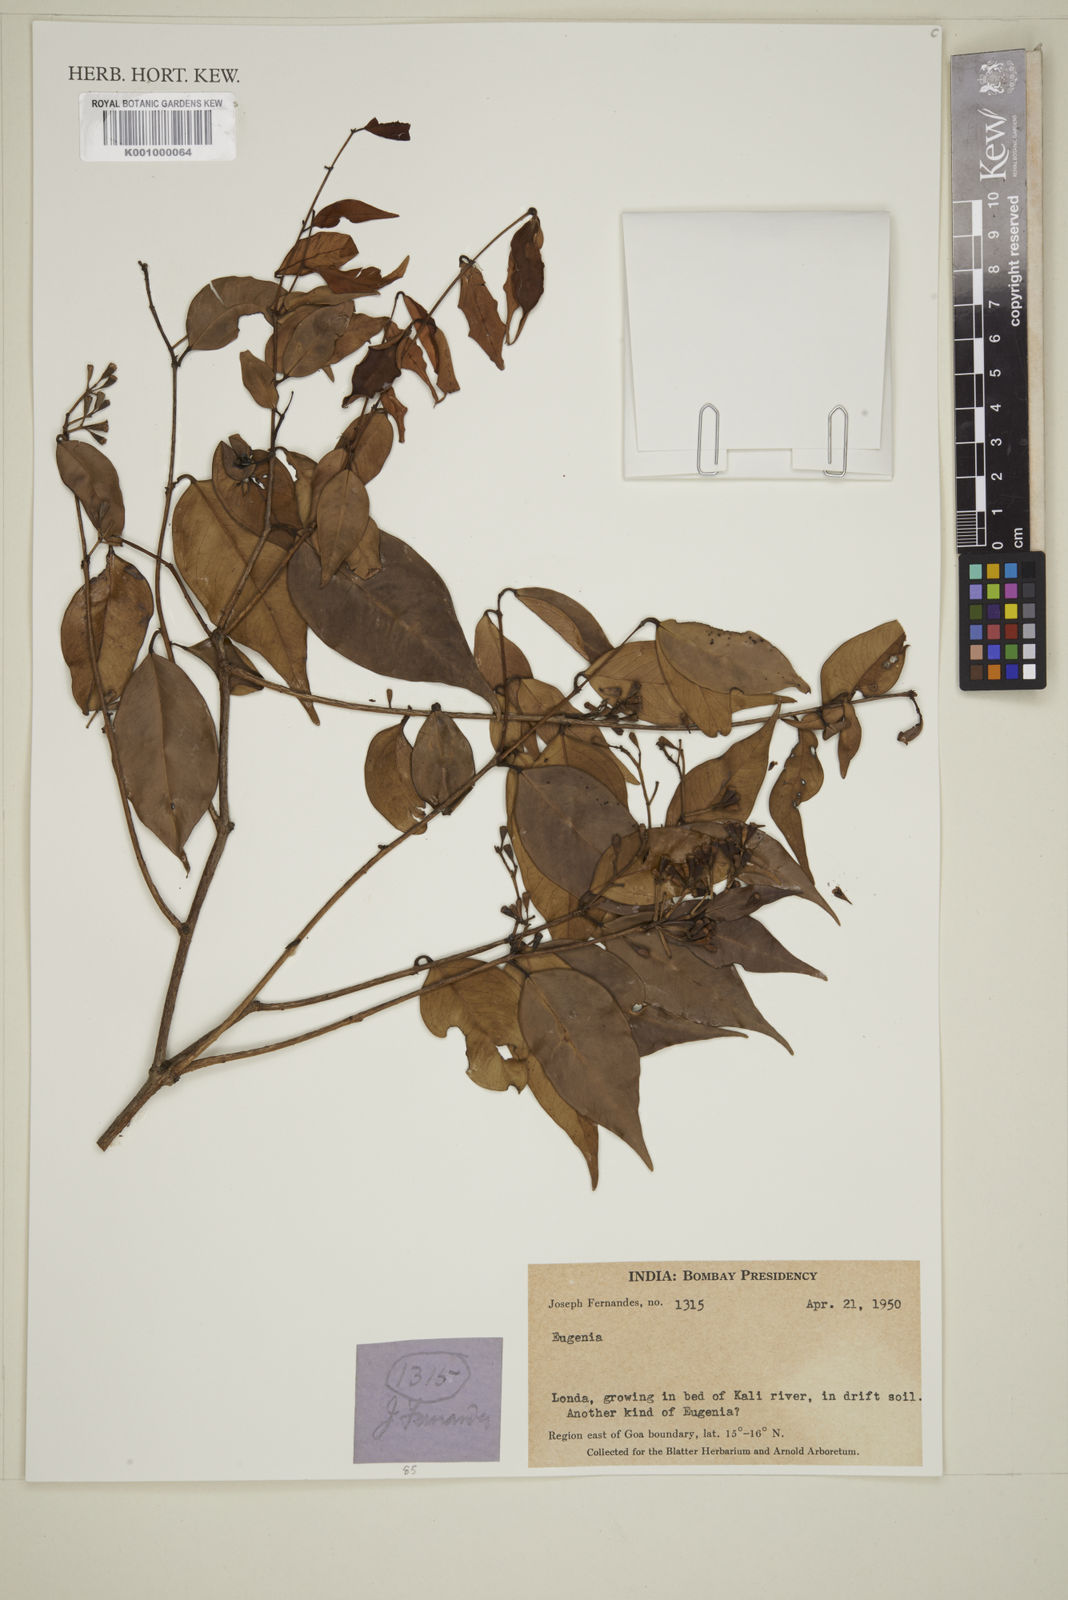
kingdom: Plantae
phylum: Tracheophyta
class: Magnoliopsida
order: Myrtales
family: Myrtaceae
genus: Eugenia
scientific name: Eugenia
